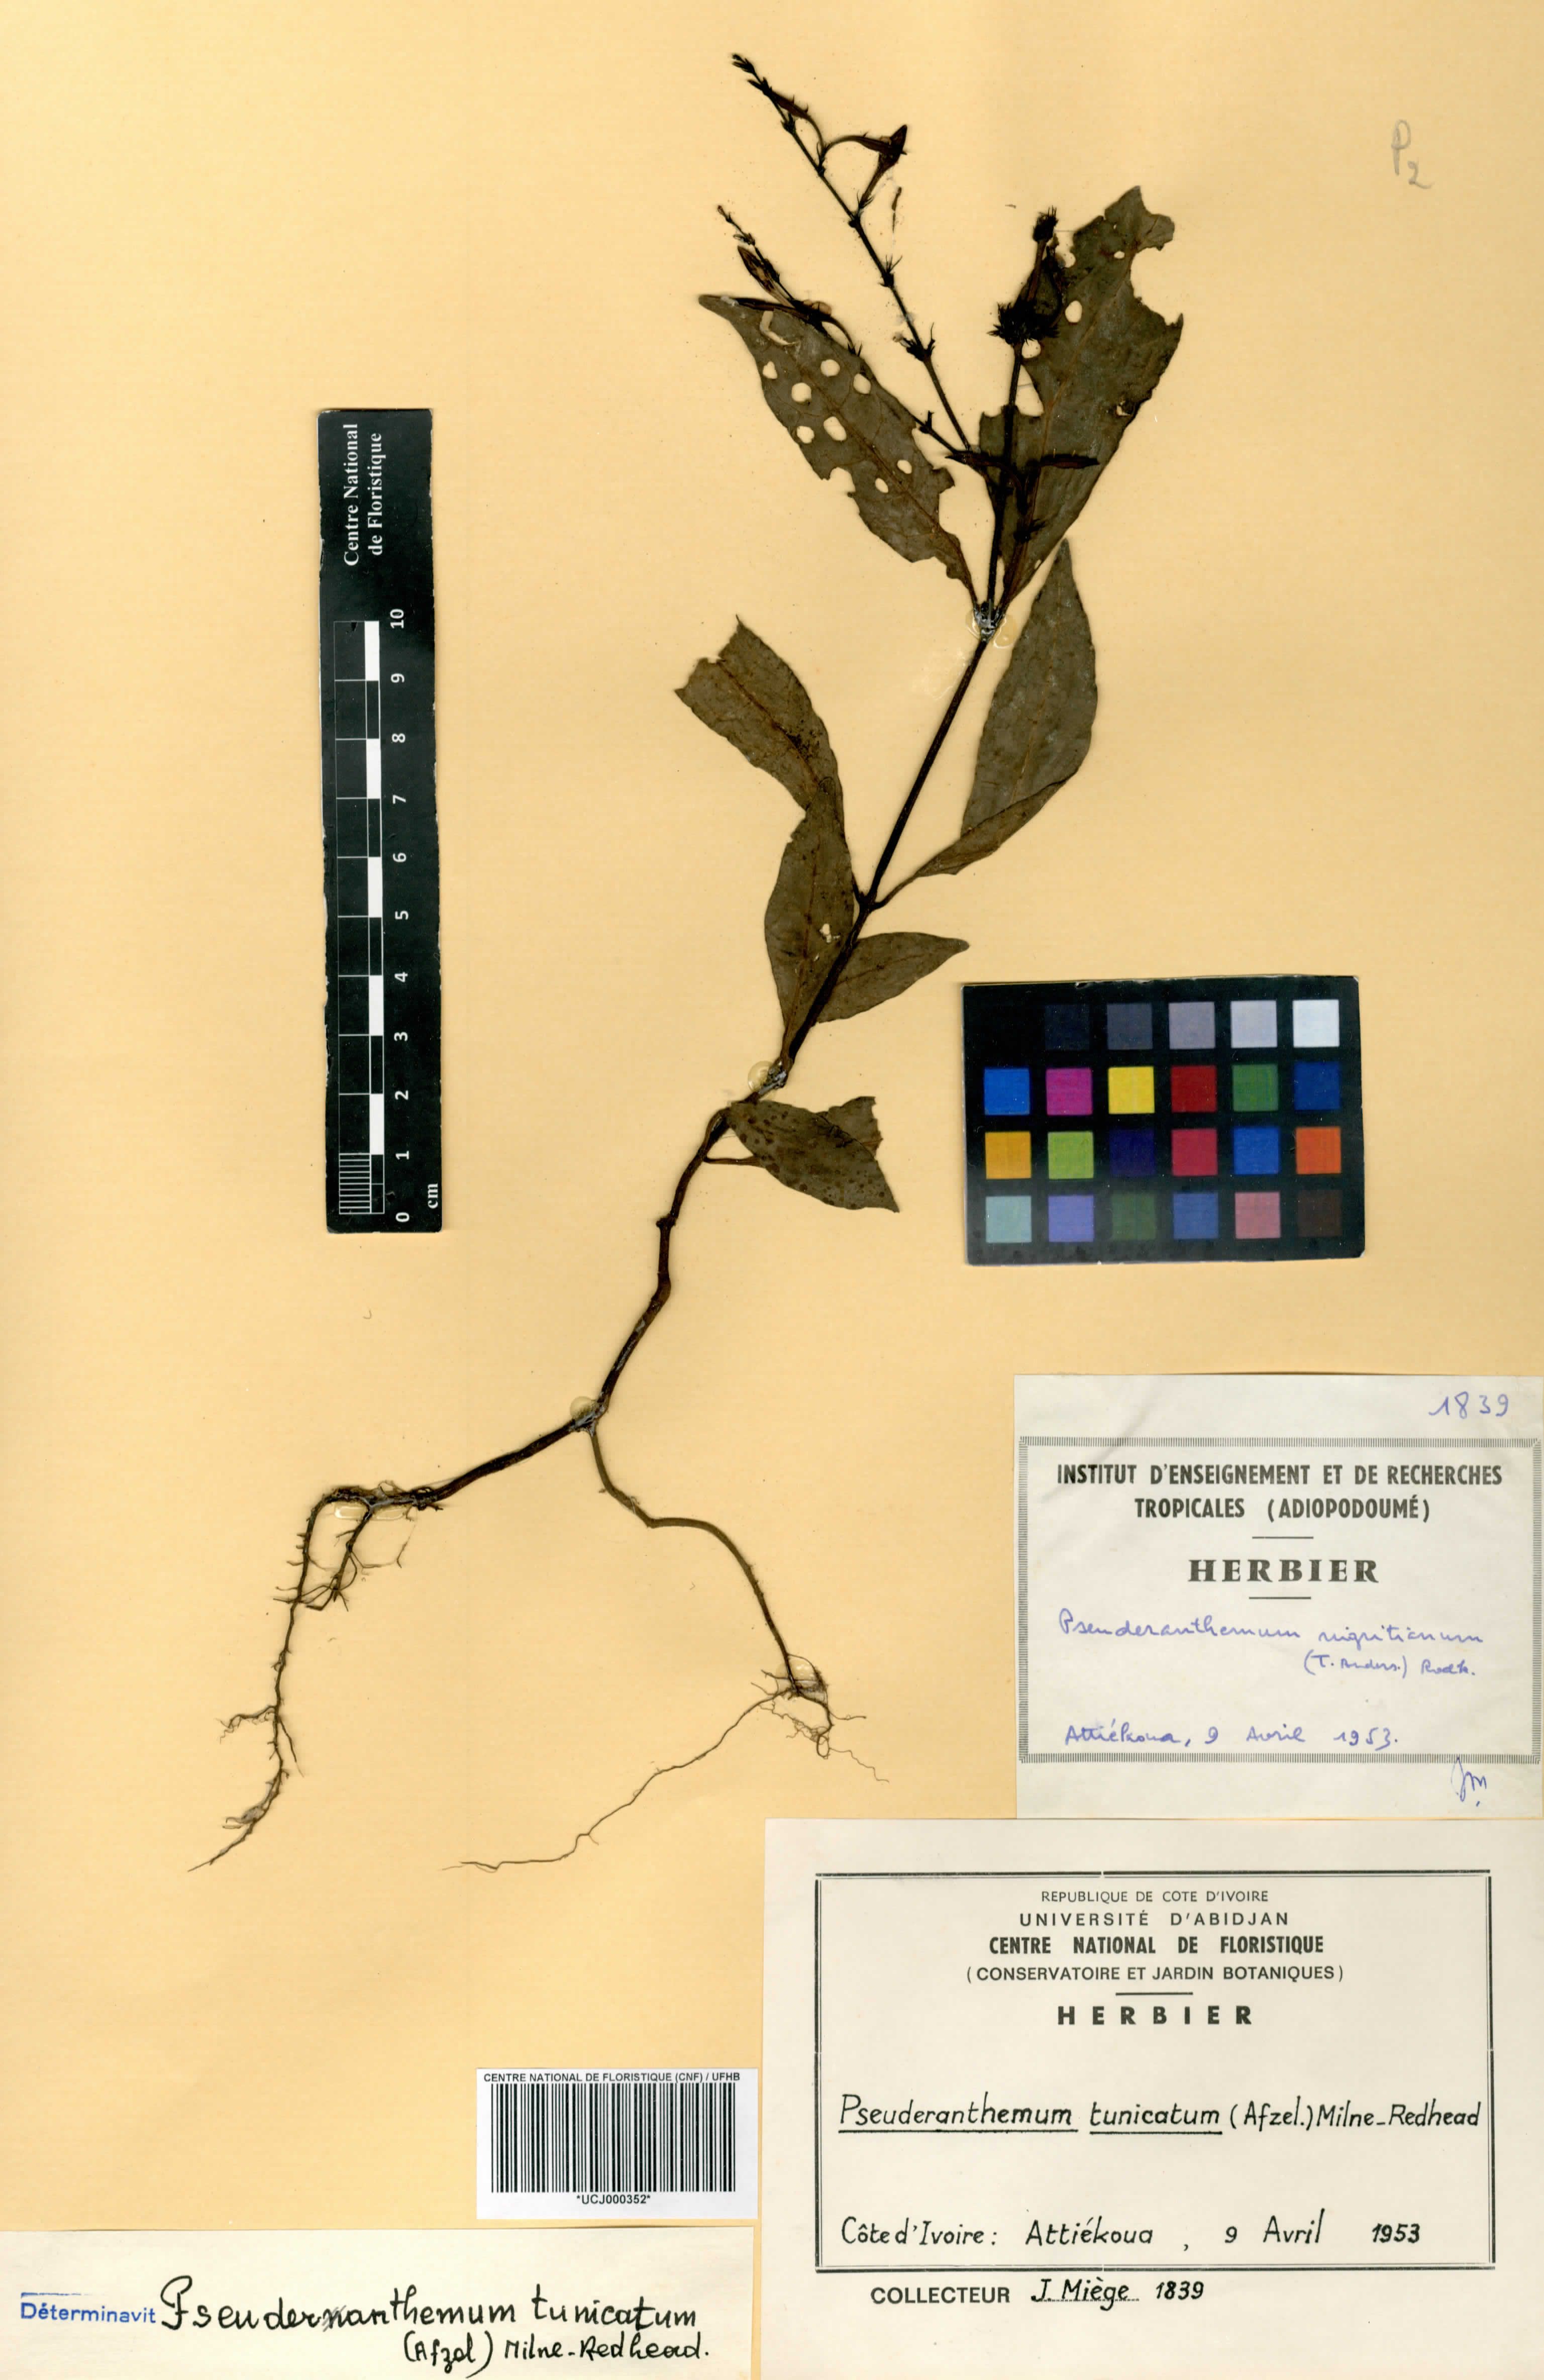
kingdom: Plantae
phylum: Tracheophyta
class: Magnoliopsida
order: Lamiales
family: Acanthaceae
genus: Pseuderanthemum
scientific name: Pseuderanthemum tunicatum
